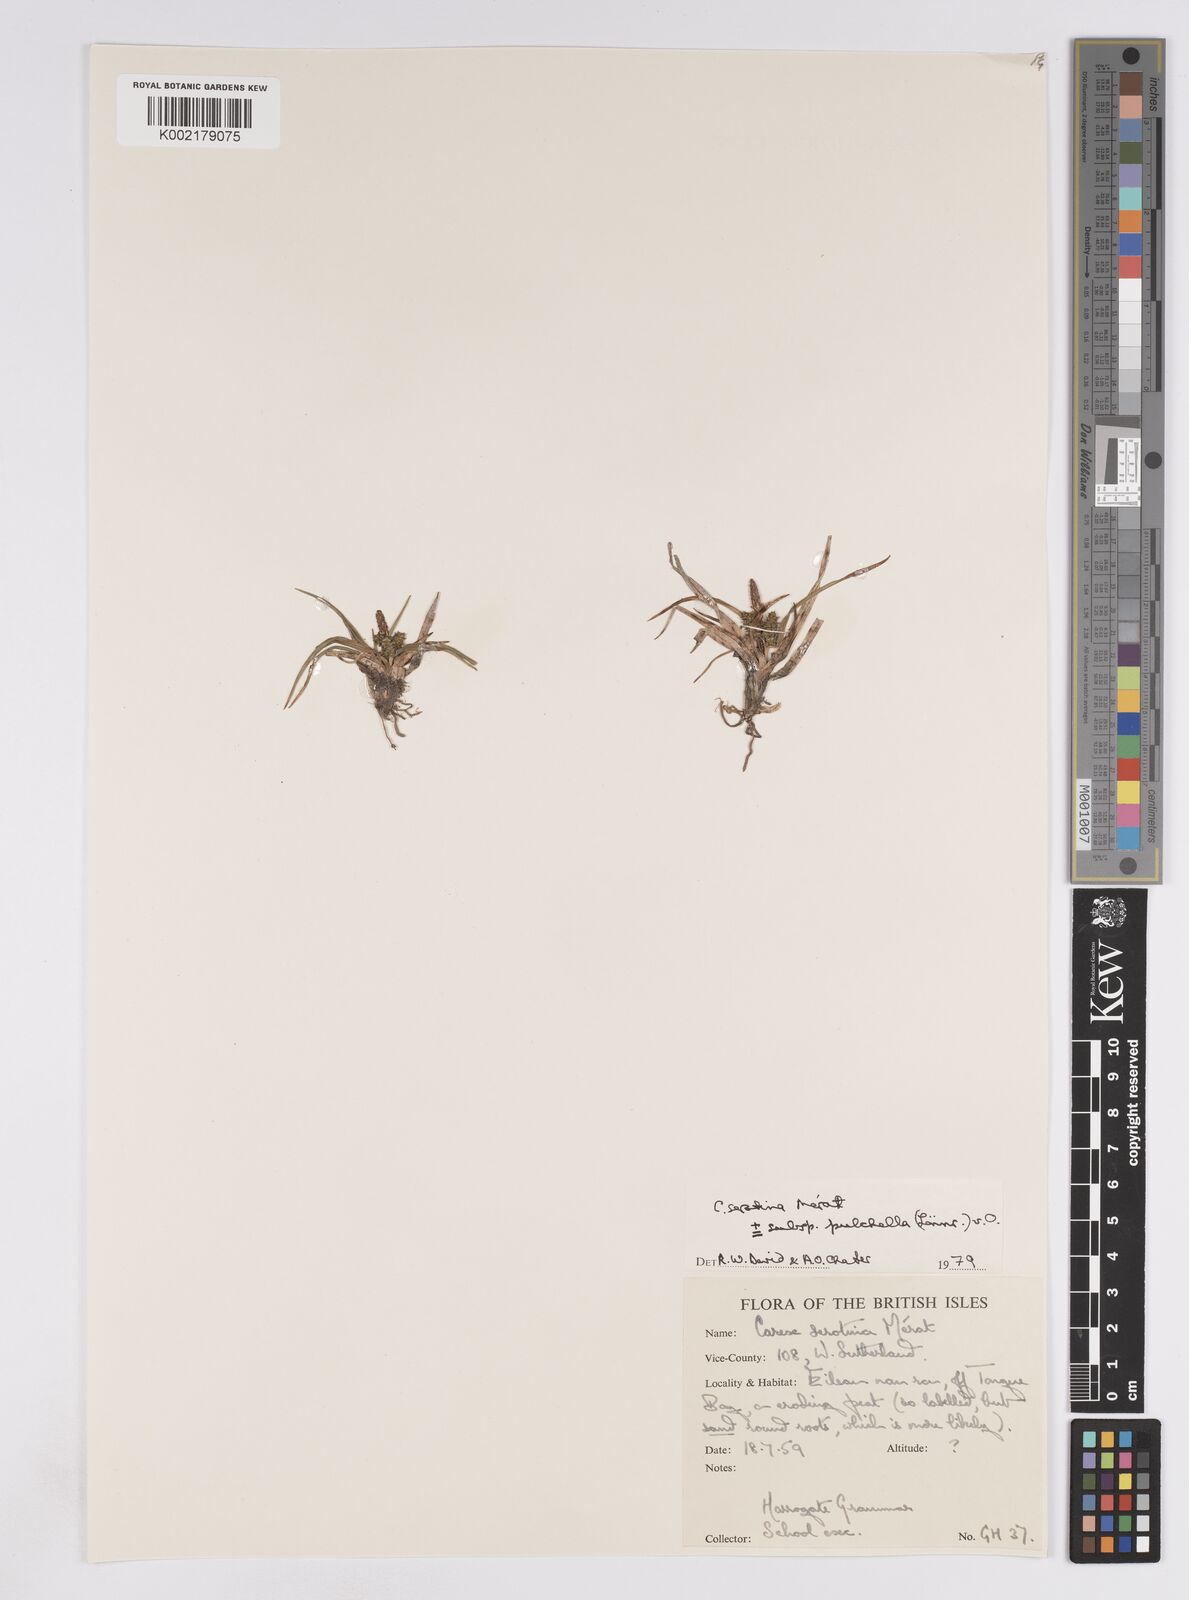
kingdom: Plantae
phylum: Tracheophyta
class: Liliopsida
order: Poales
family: Cyperaceae
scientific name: Cyperaceae
